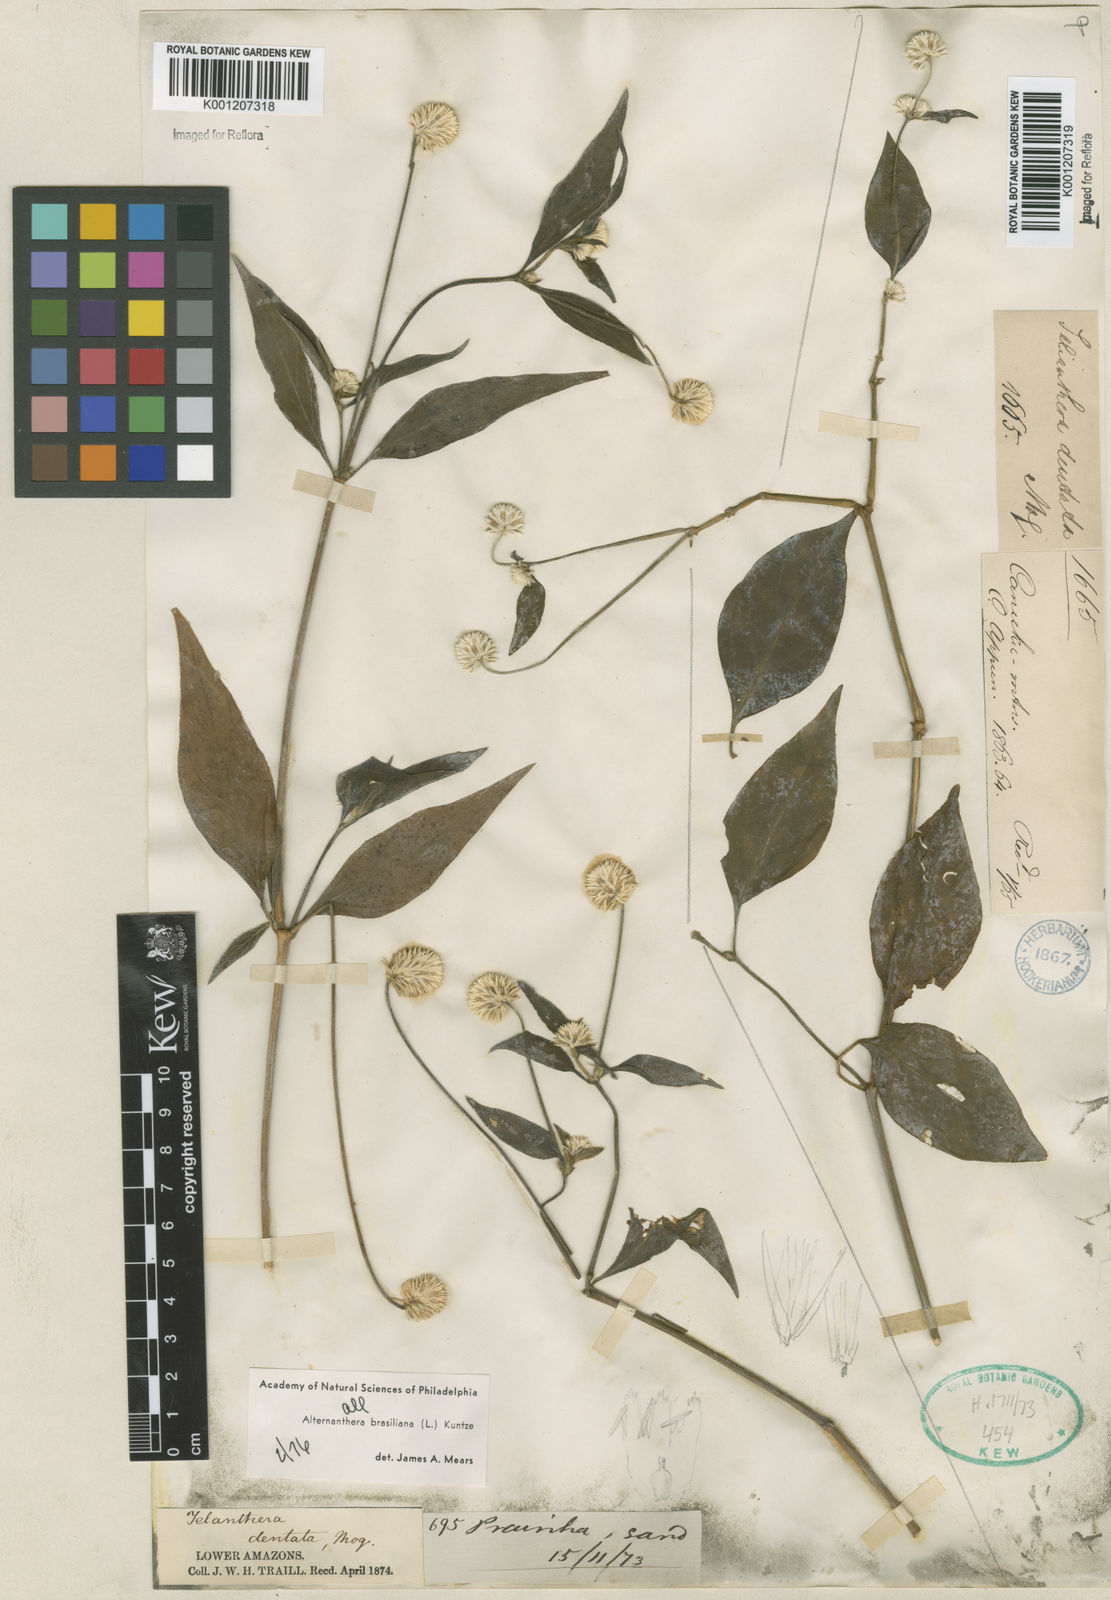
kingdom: Plantae
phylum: Tracheophyta
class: Magnoliopsida
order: Caryophyllales
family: Amaranthaceae
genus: Alternanthera
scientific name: Alternanthera brasiliana
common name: Brazilian joyweed
